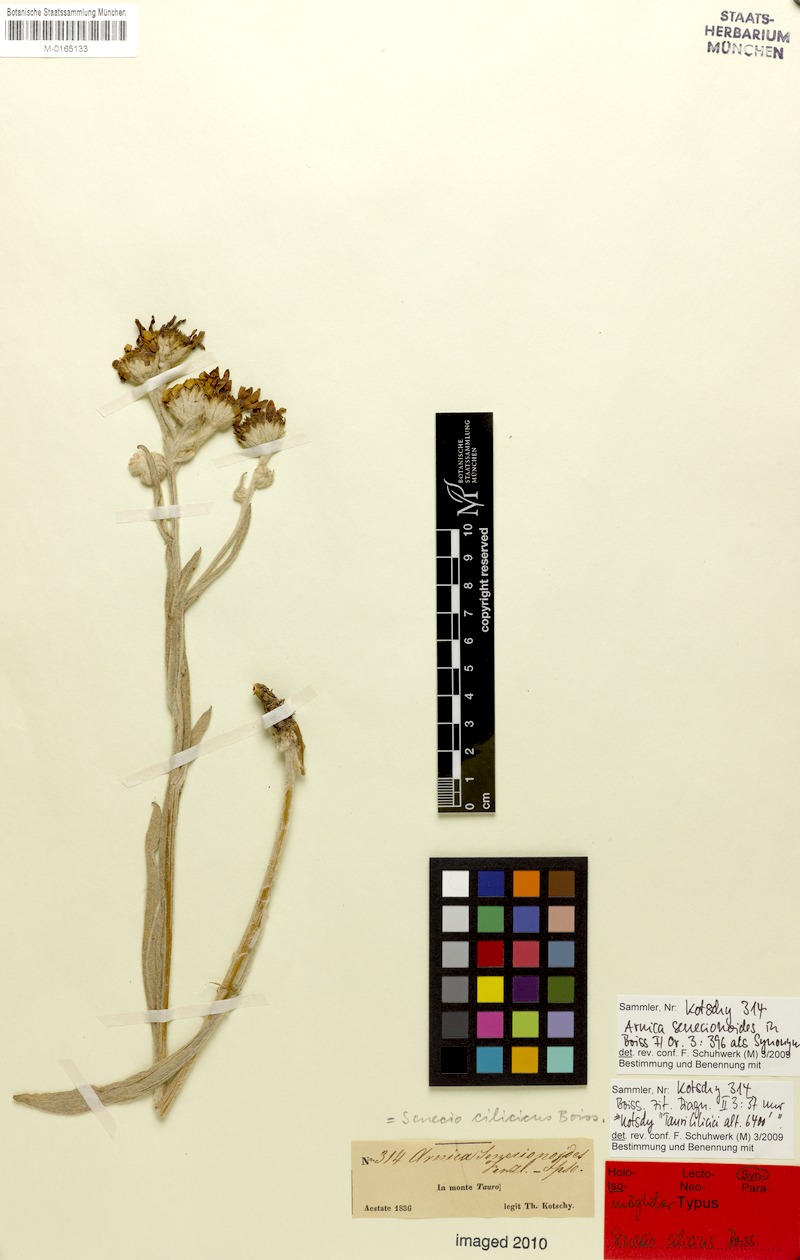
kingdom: Plantae
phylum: Tracheophyta
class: Magnoliopsida
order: Asterales
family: Asteraceae
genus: Jacobaea
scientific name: Jacobaea cilicia
